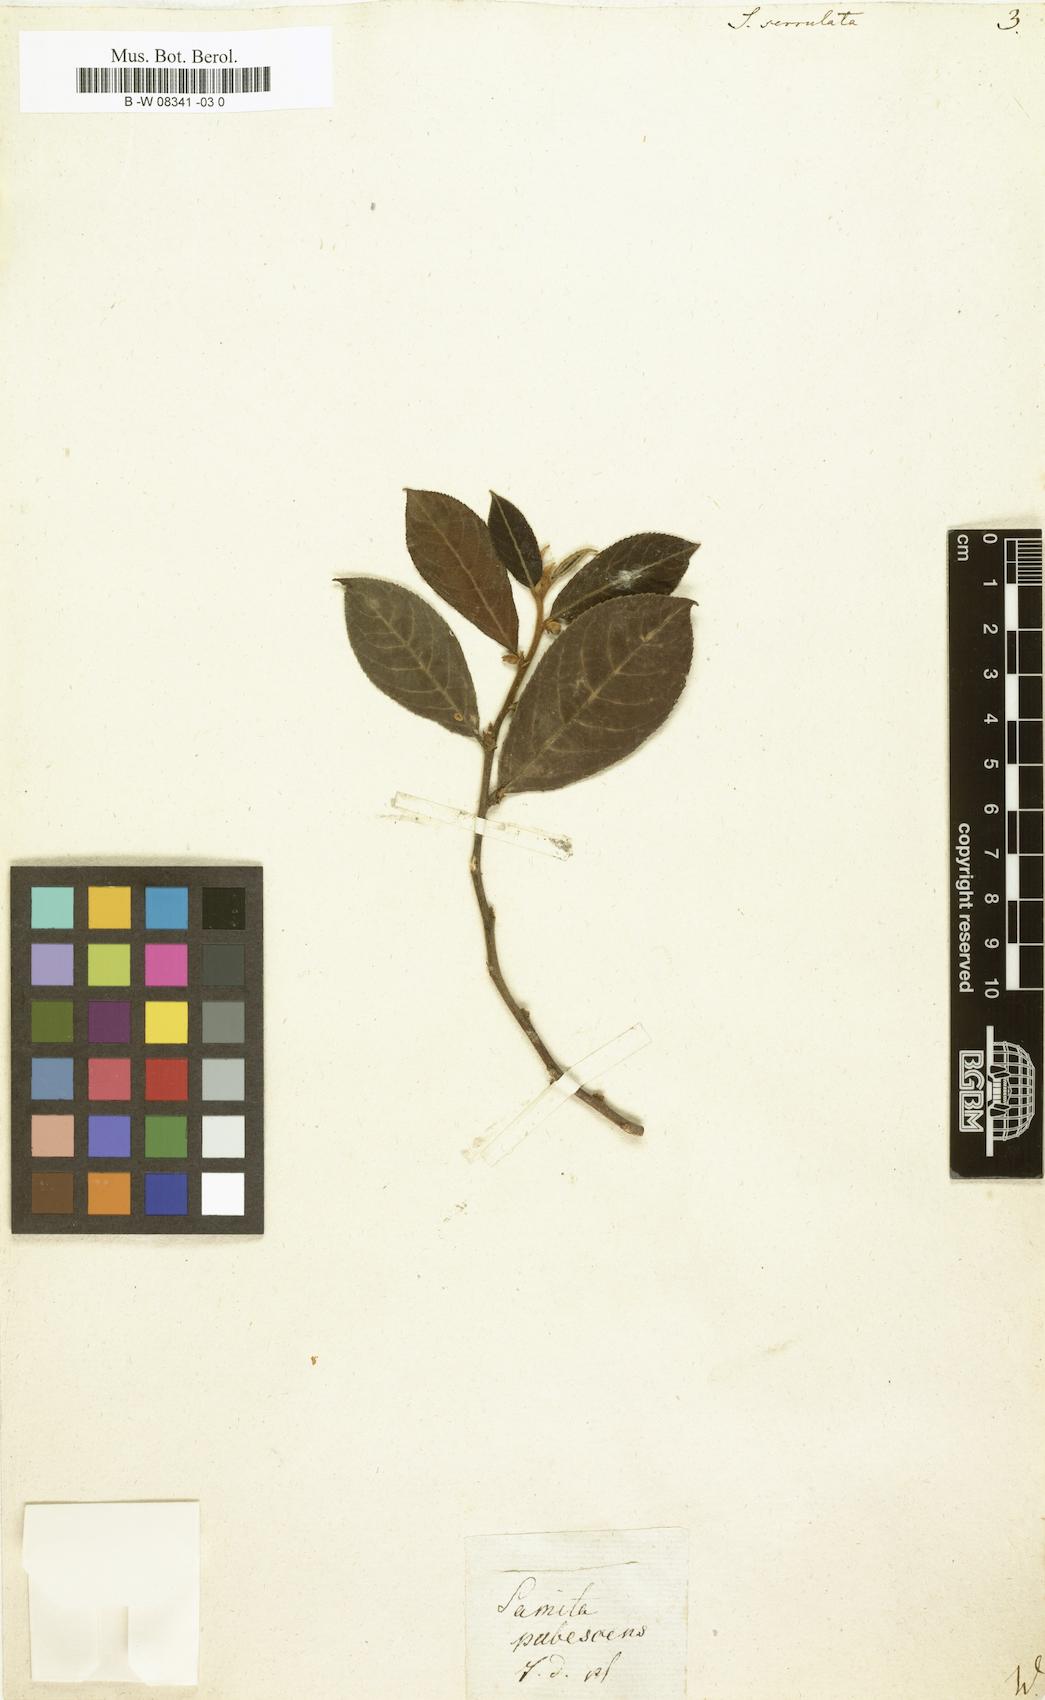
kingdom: Plantae
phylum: Tracheophyta
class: Magnoliopsida
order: Malpighiales
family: Salicaceae
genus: Casearia
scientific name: Casearia
